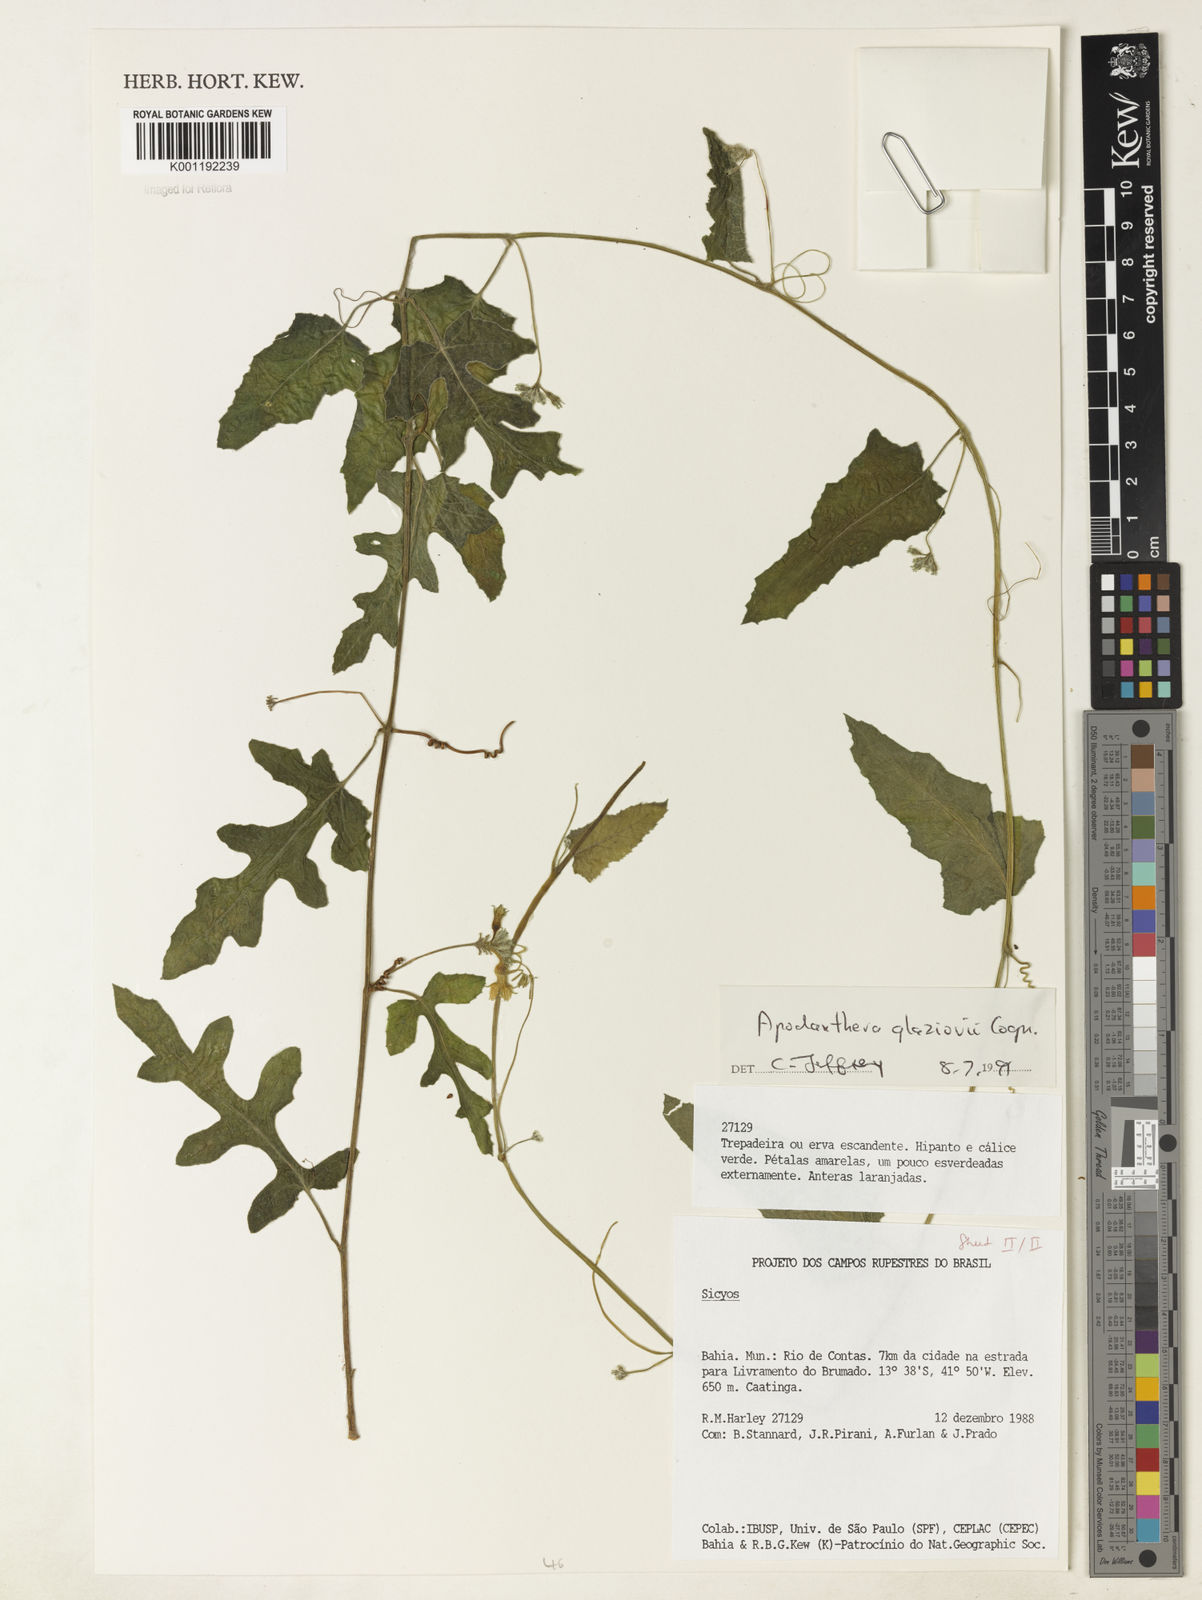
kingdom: Plantae
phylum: Tracheophyta
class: Magnoliopsida
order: Cucurbitales
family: Cucurbitaceae
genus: Apodanthera
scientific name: Apodanthera glaziovii
